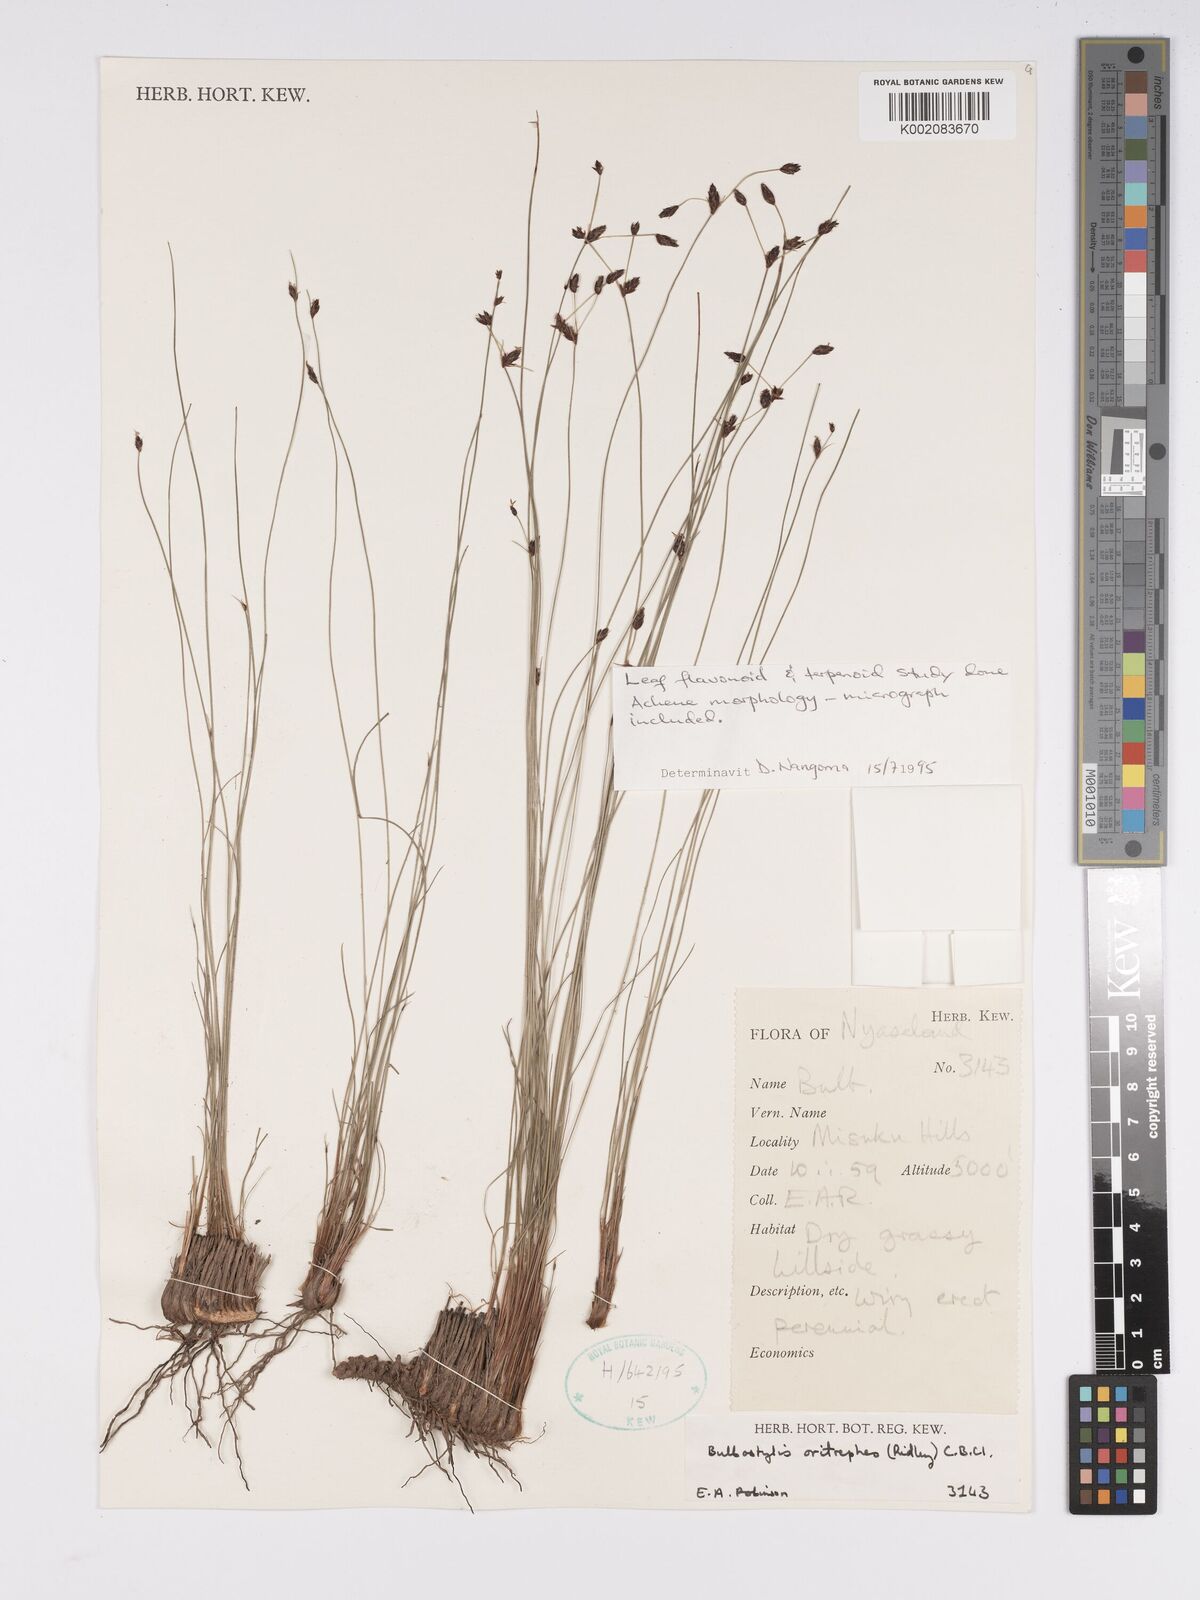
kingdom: Plantae
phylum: Tracheophyta
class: Liliopsida
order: Poales
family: Cyperaceae
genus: Bulbostylis
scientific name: Bulbostylis oritrephes
